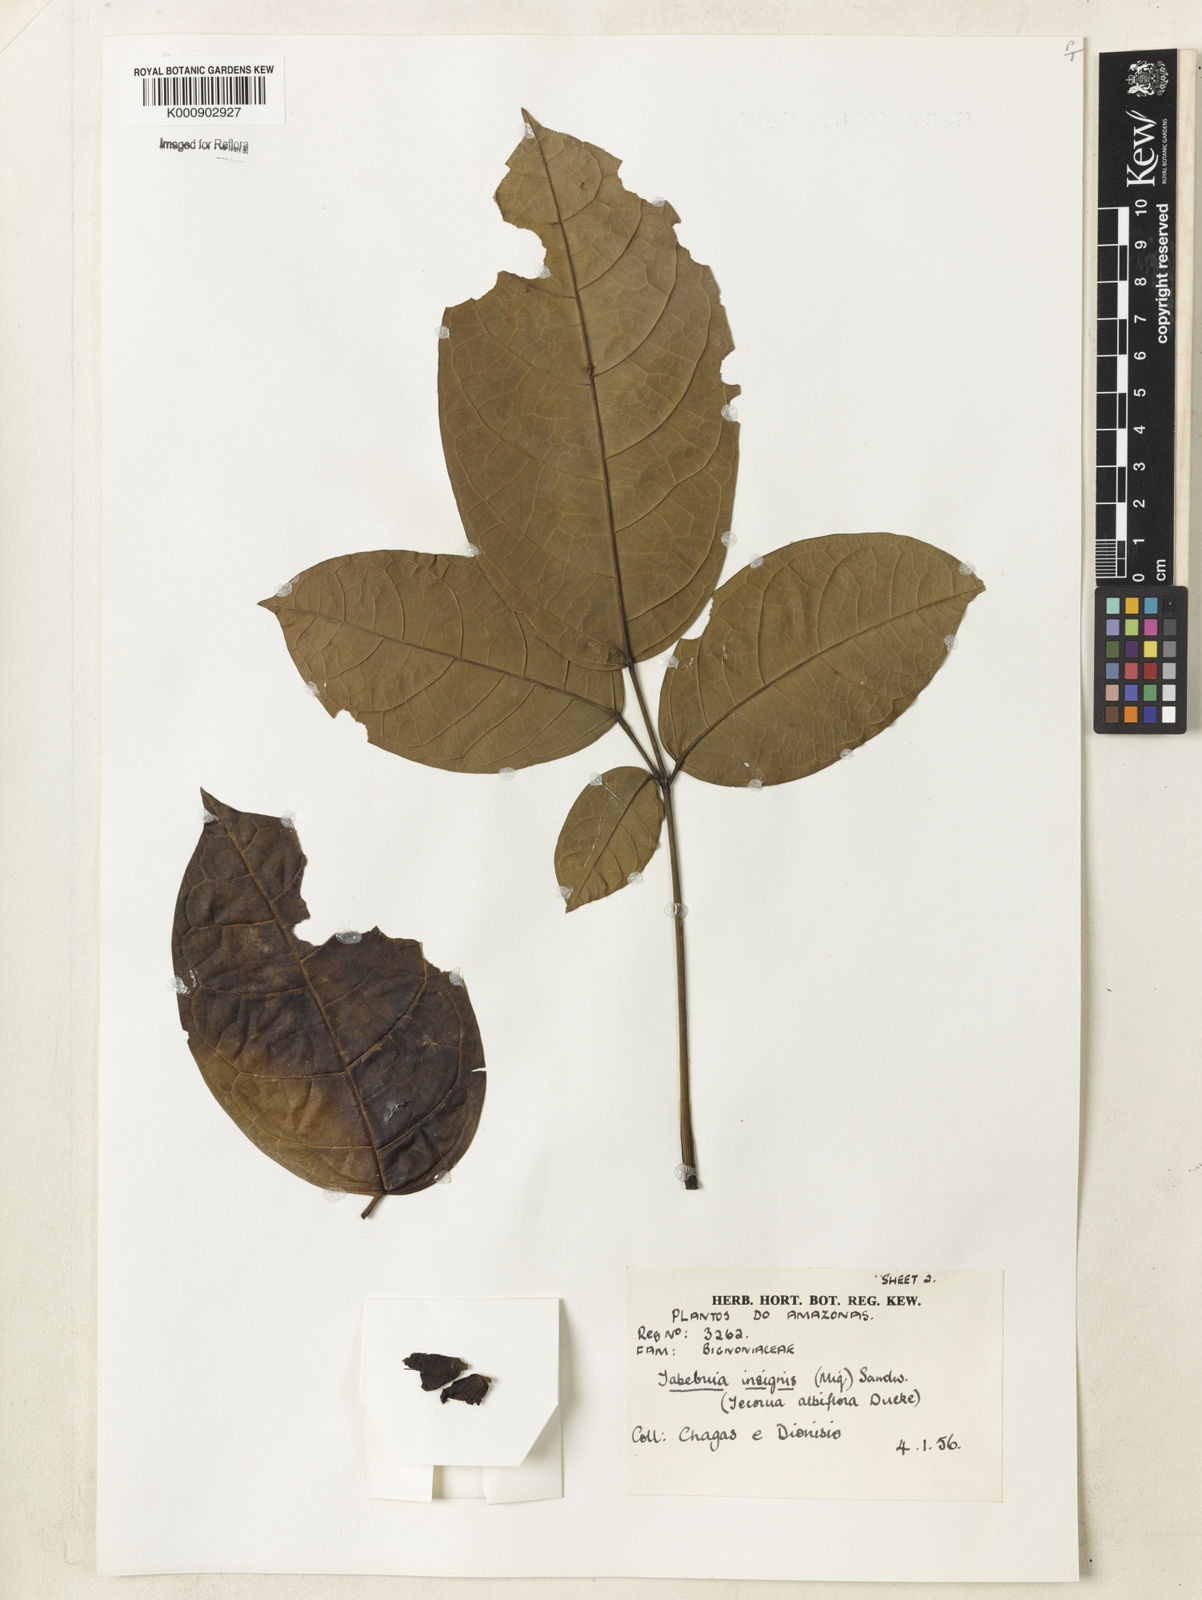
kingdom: Plantae
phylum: Tracheophyta
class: Magnoliopsida
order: Lamiales
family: Bignoniaceae
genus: Tabebuia
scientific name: Tabebuia insignis
